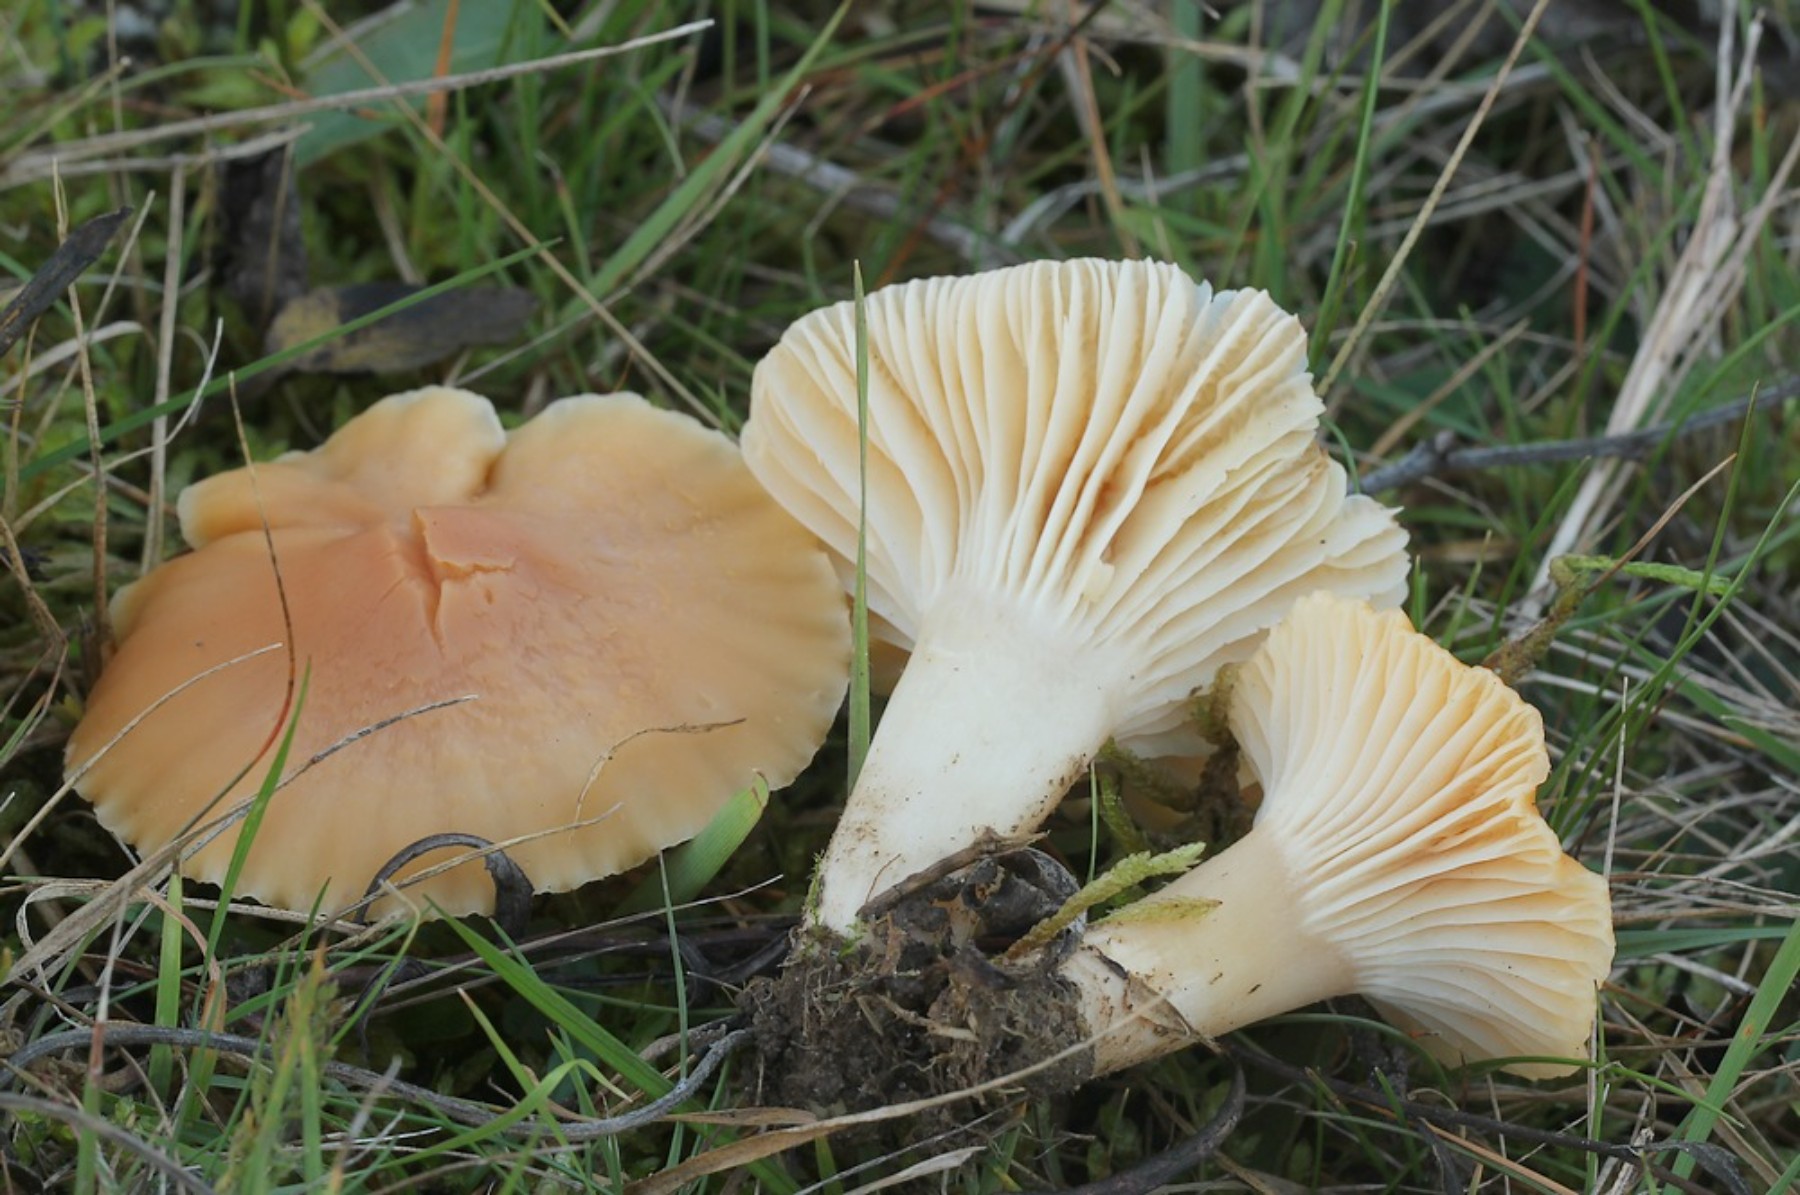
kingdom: Fungi
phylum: Basidiomycota
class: Agaricomycetes
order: Agaricales
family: Hygrophoraceae
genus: Cuphophyllus
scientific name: Cuphophyllus pratensis
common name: eng-vokshat
